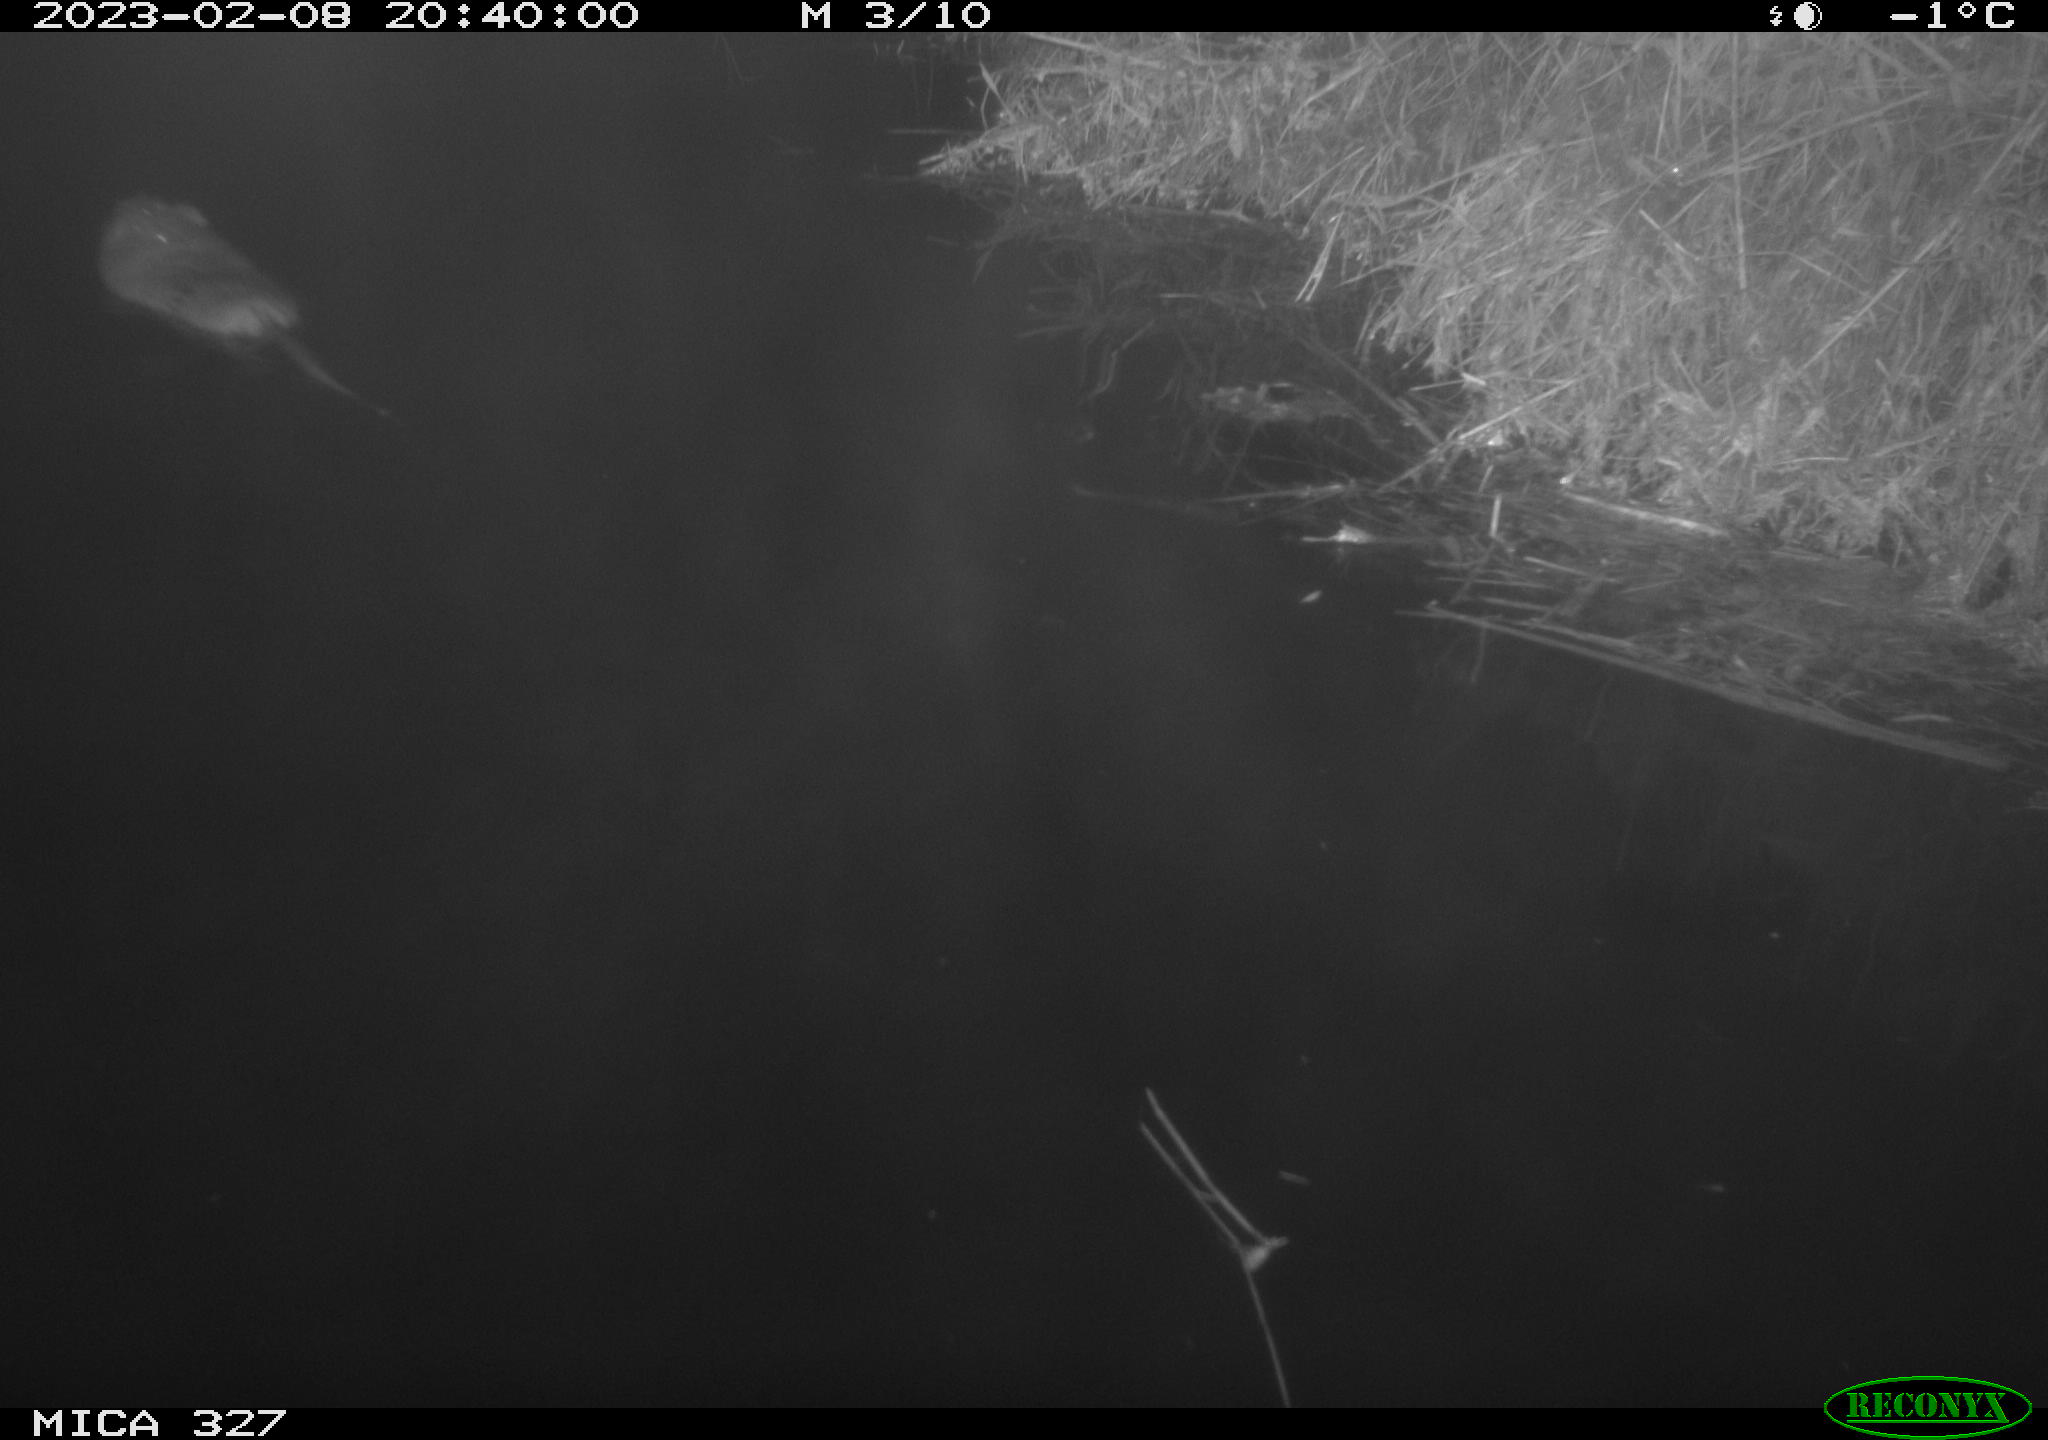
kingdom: Animalia
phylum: Chordata
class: Mammalia
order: Rodentia
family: Cricetidae
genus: Ondatra
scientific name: Ondatra zibethicus
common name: Muskrat
